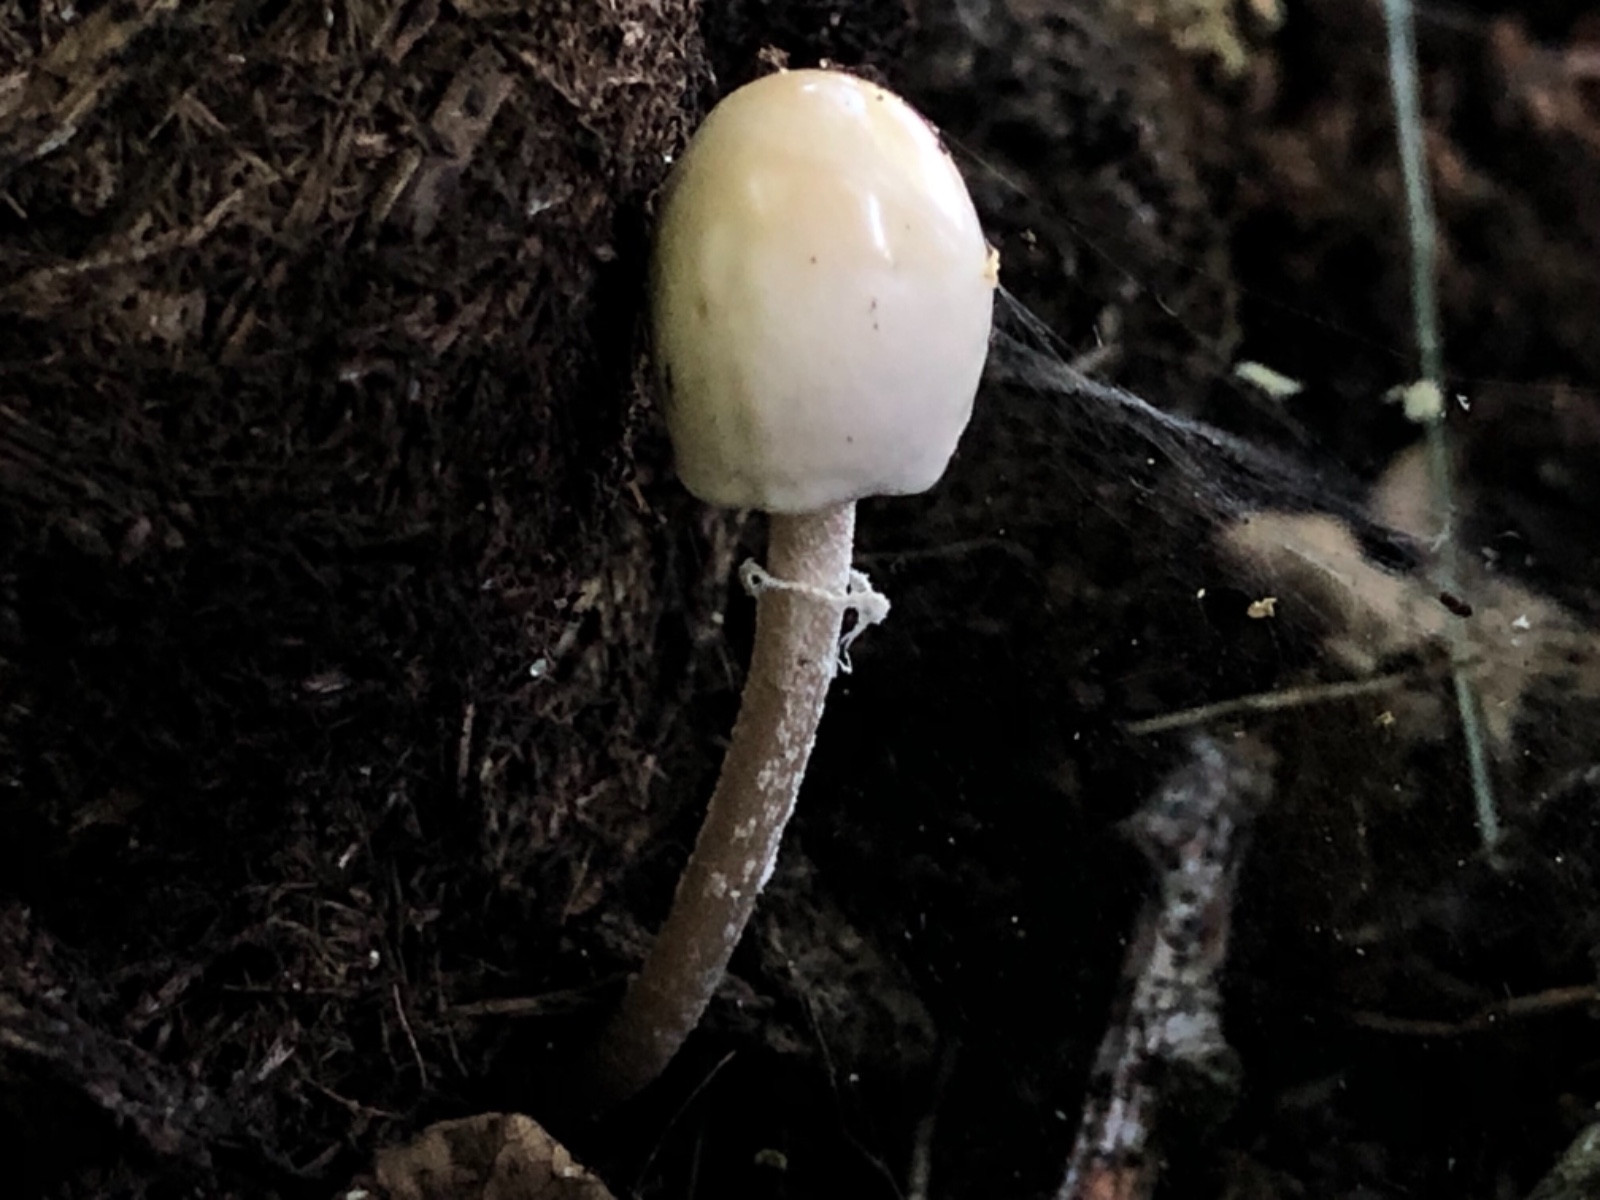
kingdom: Fungi
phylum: Basidiomycota
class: Agaricomycetes
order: Agaricales
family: Bolbitiaceae
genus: Panaeolus
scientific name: Panaeolus semiovatus
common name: ring-glanshat
